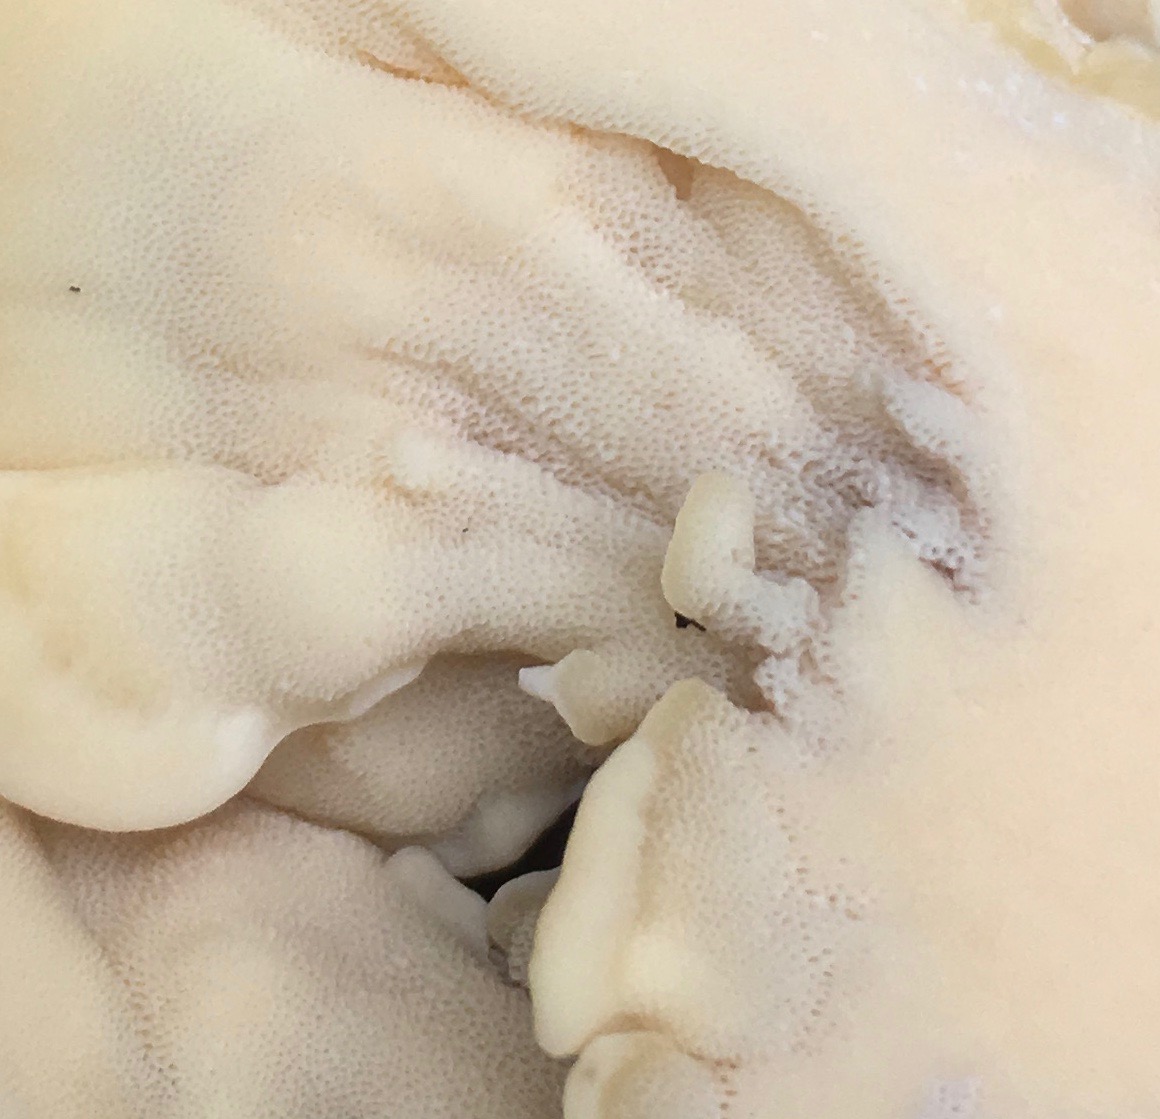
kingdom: Fungi
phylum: Basidiomycota
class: Agaricomycetes
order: Polyporales
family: Meripilaceae
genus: Meripilus
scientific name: Meripilus giganteus
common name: kæmpeporesvamp
